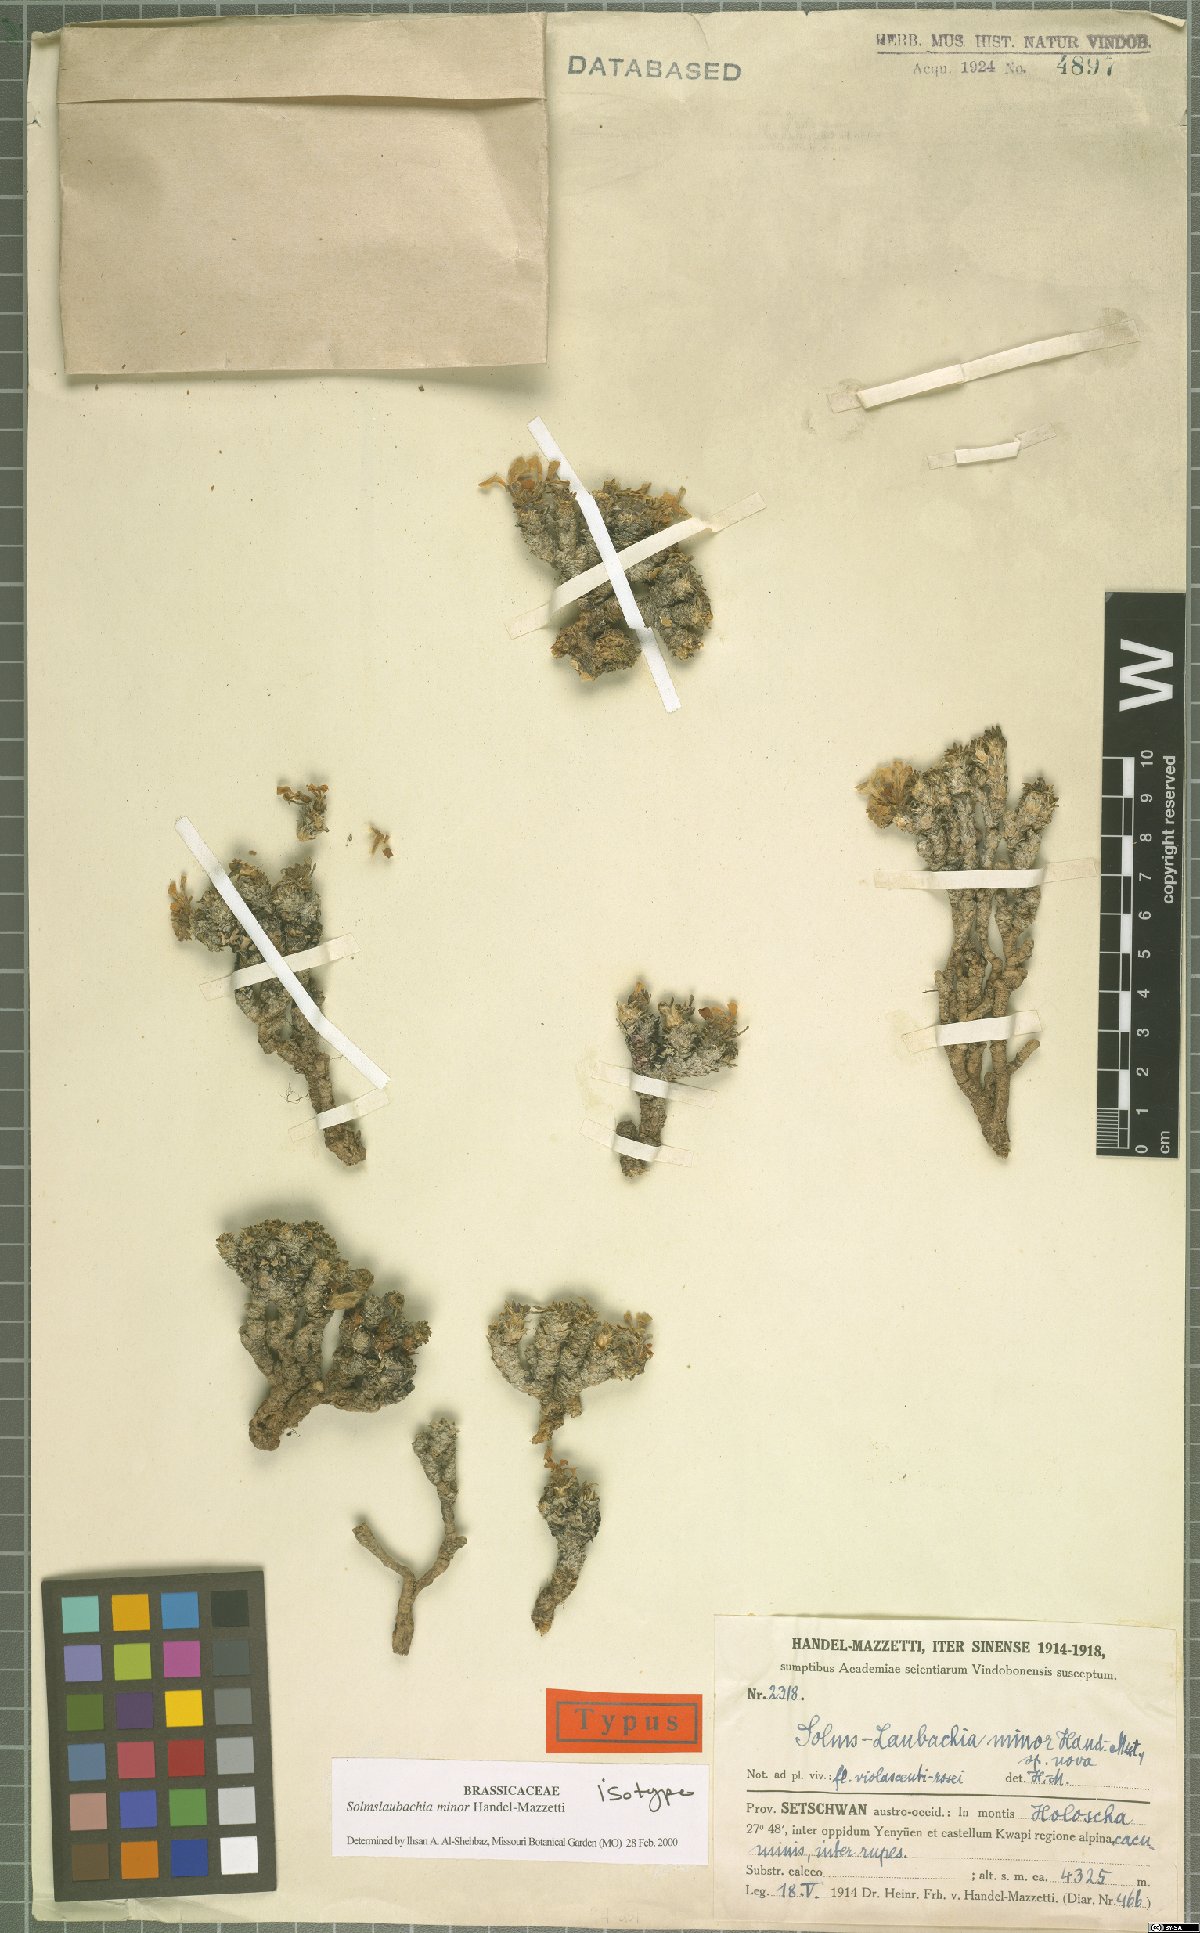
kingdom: Plantae
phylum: Tracheophyta
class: Magnoliopsida
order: Brassicales
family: Brassicaceae
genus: Solms-laubachia
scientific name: Solms-laubachia minor
